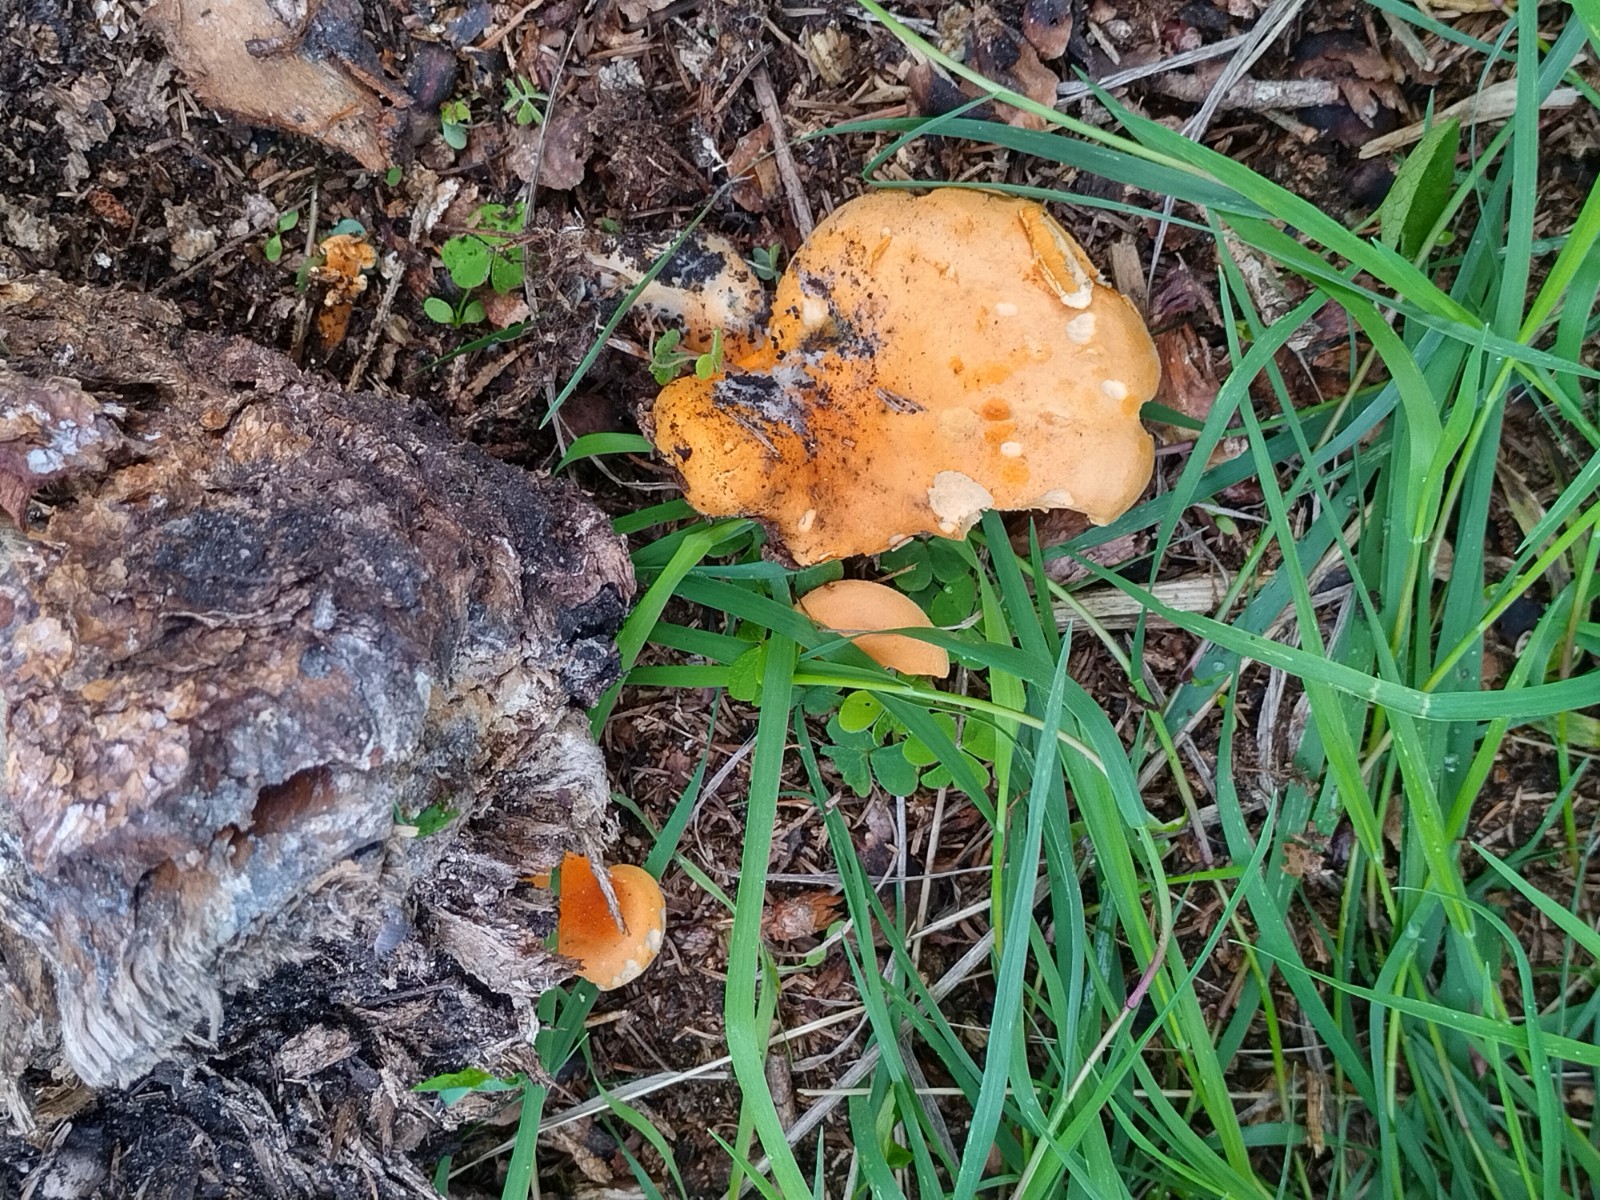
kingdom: Fungi
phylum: Basidiomycota
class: Agaricomycetes
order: Boletales
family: Hygrophoropsidaceae
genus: Hygrophoropsis
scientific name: Hygrophoropsis aurantiaca
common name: almindelig orangekantarel
